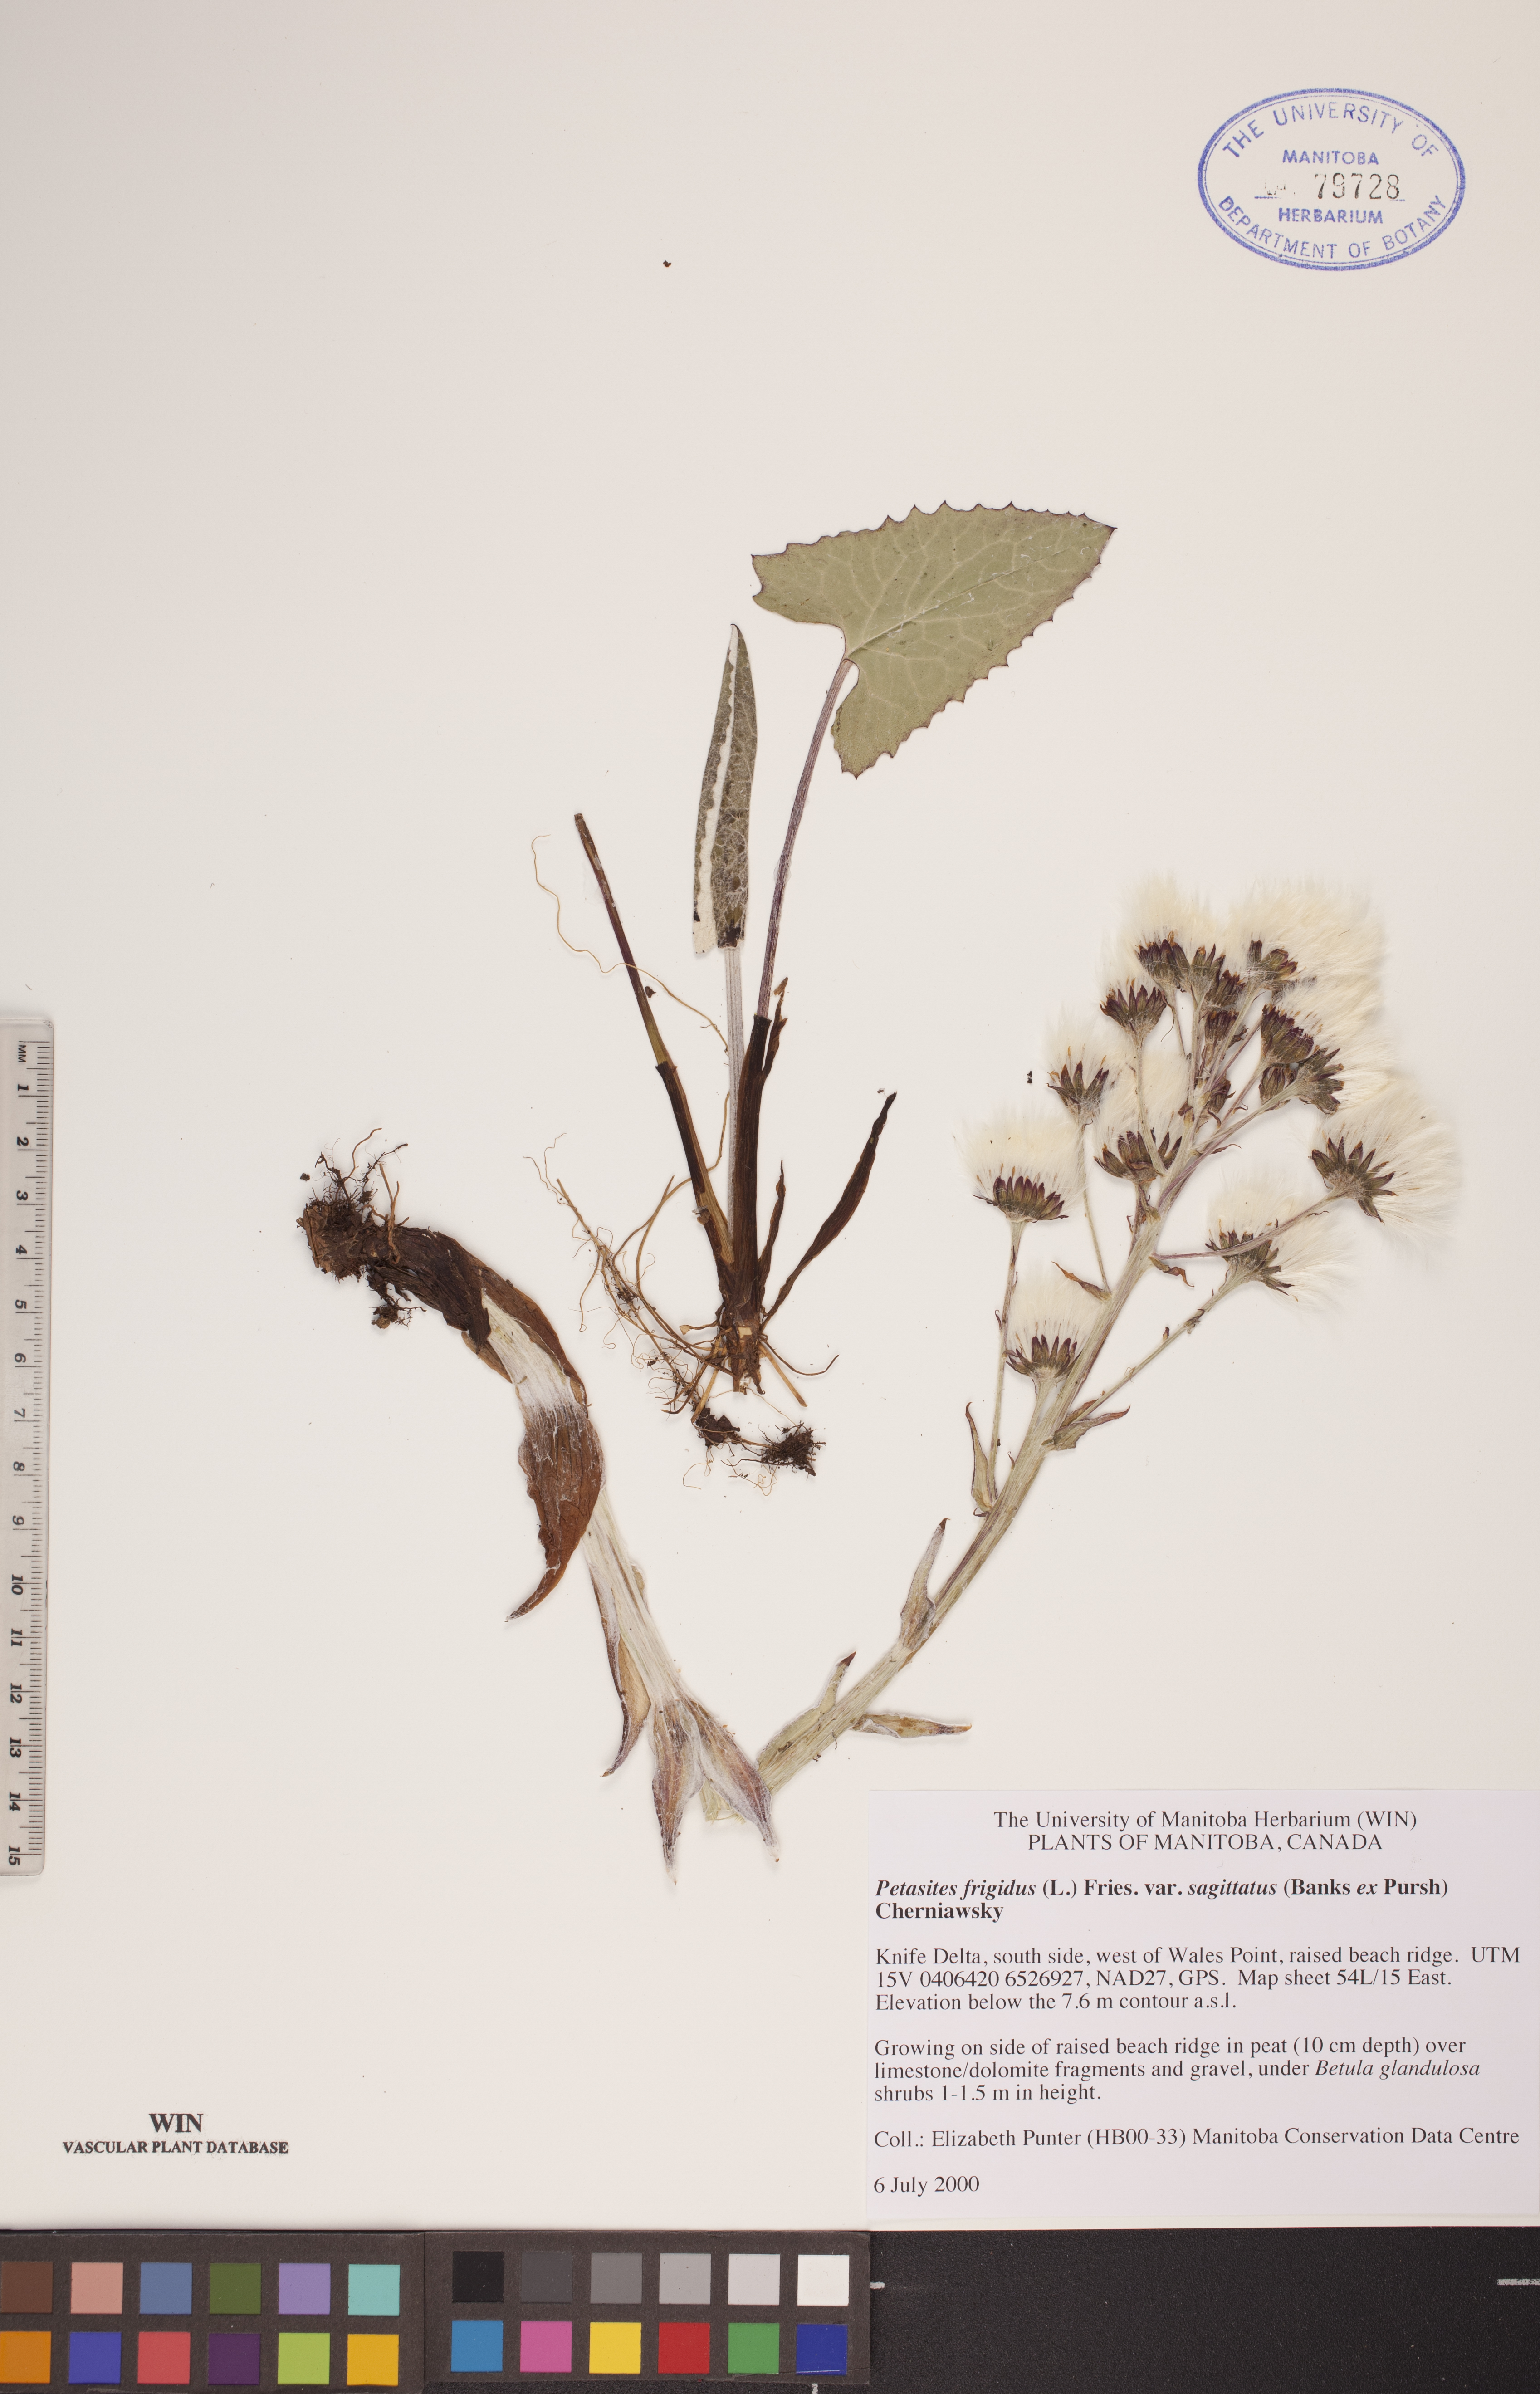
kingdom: Plantae
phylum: Tracheophyta
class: Magnoliopsida
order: Asterales
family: Asteraceae
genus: Petasites
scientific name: Petasites frigidus
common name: Arctic butterbur
